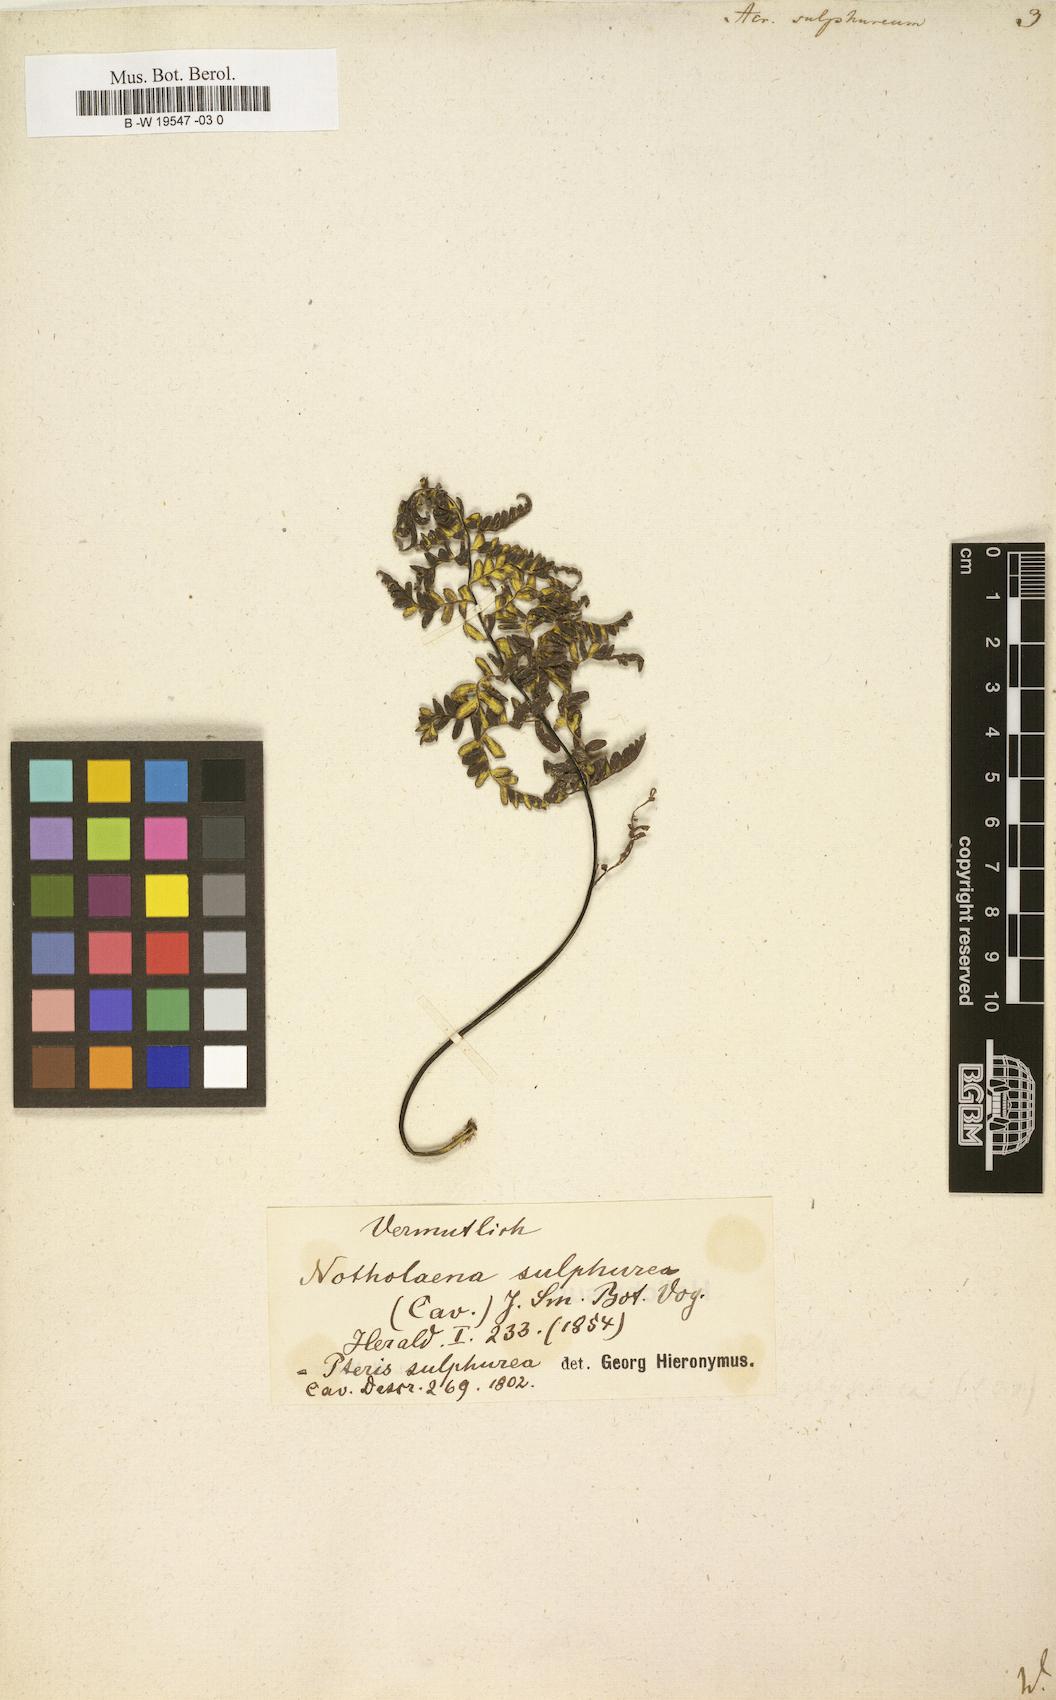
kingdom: Plantae
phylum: Tracheophyta
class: Polypodiopsida
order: Polypodiales
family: Pteridaceae
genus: Pityrogramma
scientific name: Pityrogramma sulphurea
